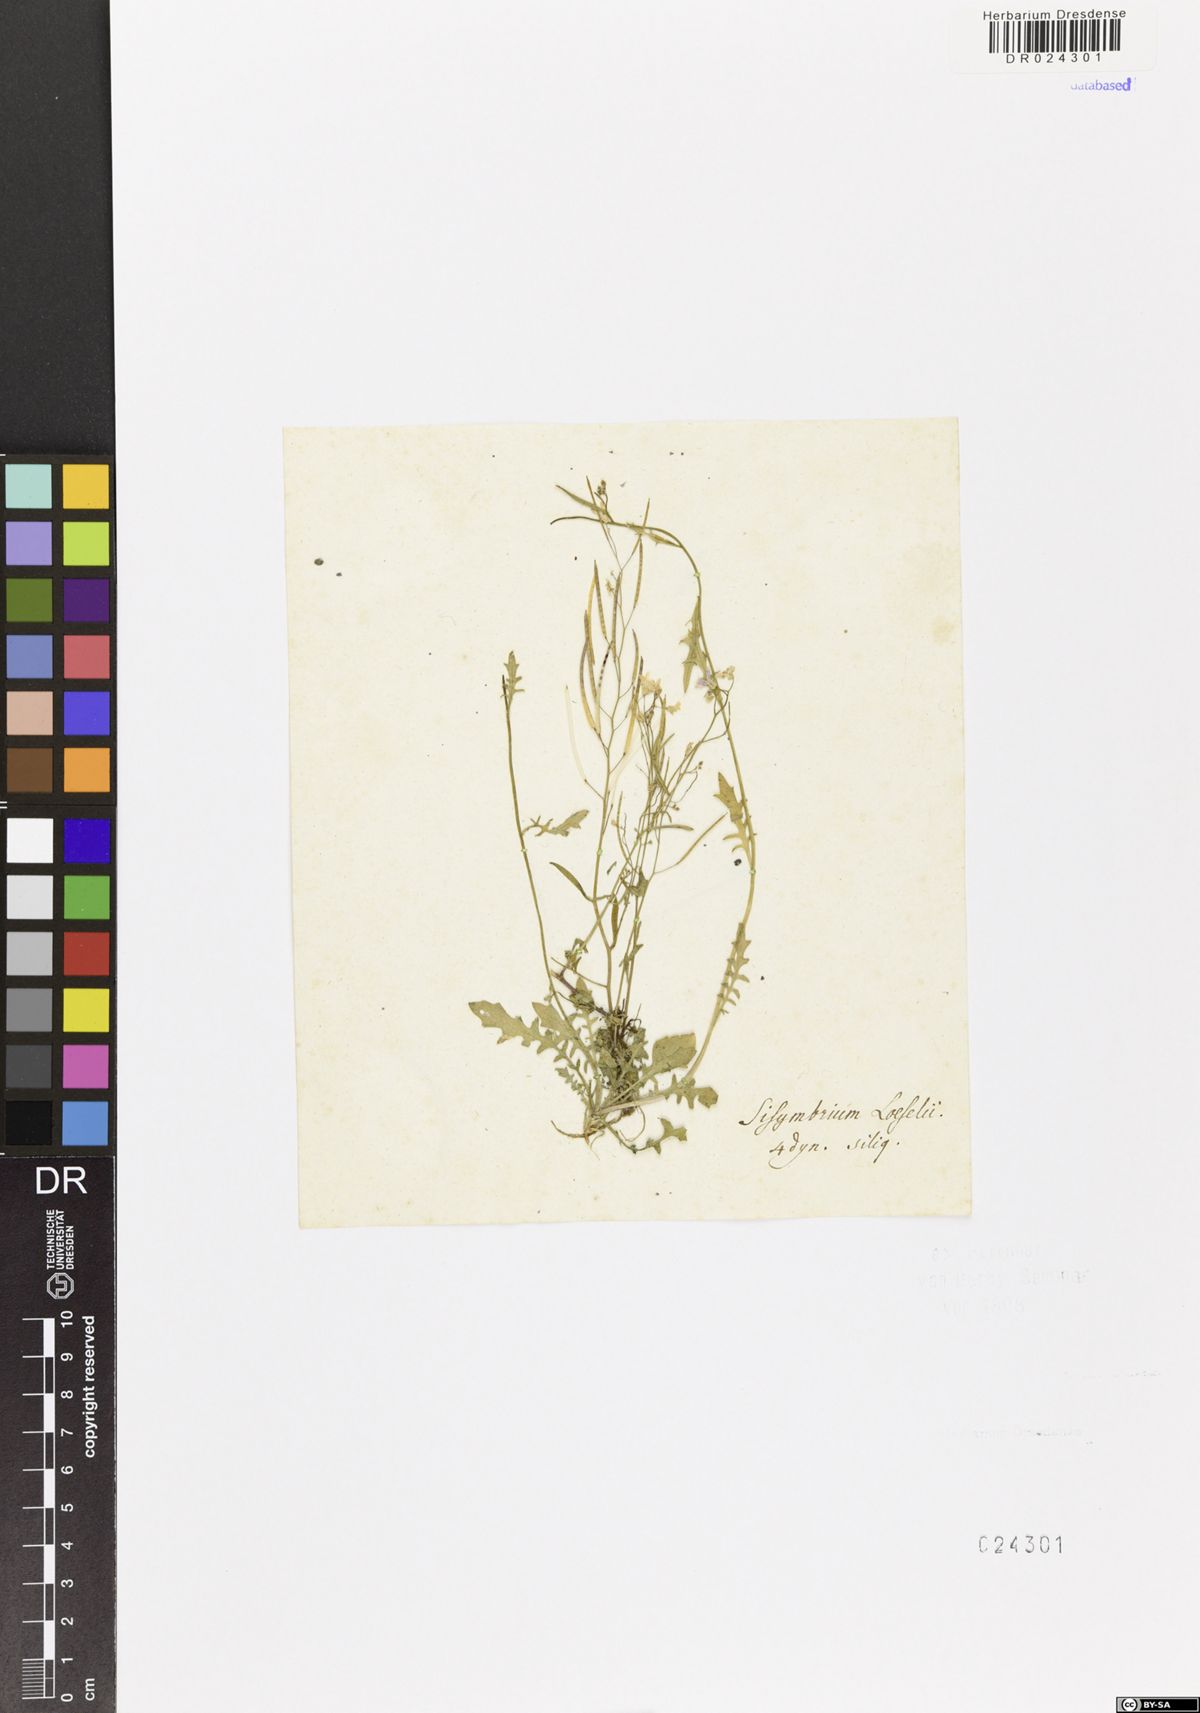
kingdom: Plantae
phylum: Tracheophyta
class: Magnoliopsida
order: Brassicales
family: Brassicaceae
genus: Arabidopsis
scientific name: Arabidopsis arenosa
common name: Sand rock-cress
